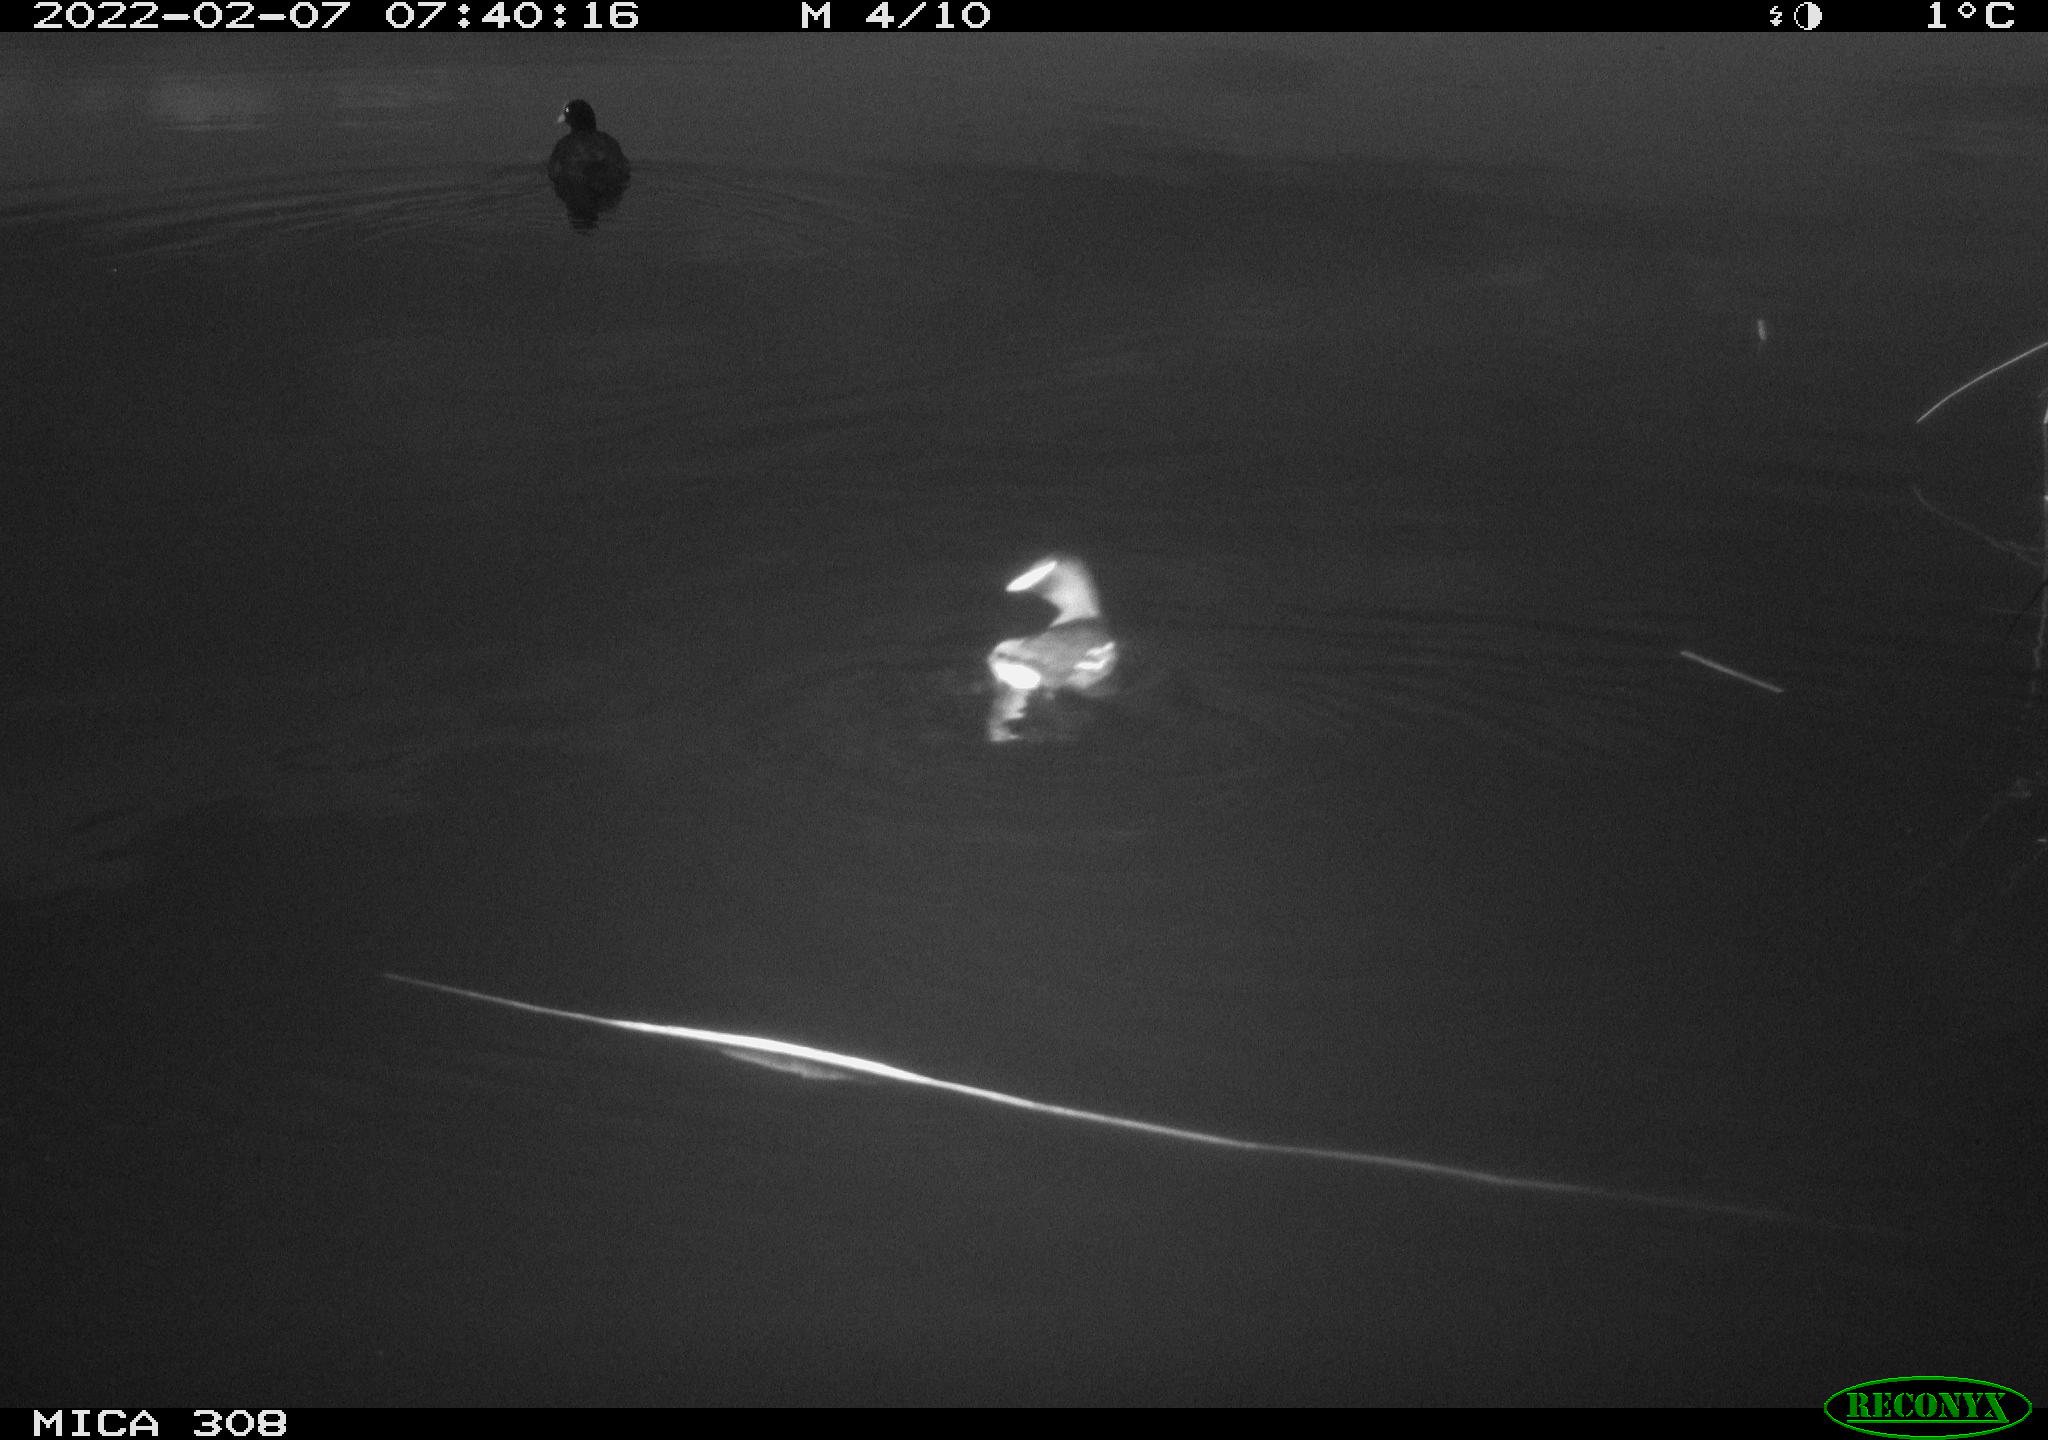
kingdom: Animalia
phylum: Chordata
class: Aves
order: Gruiformes
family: Rallidae
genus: Gallinula
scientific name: Gallinula chloropus
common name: Common moorhen
